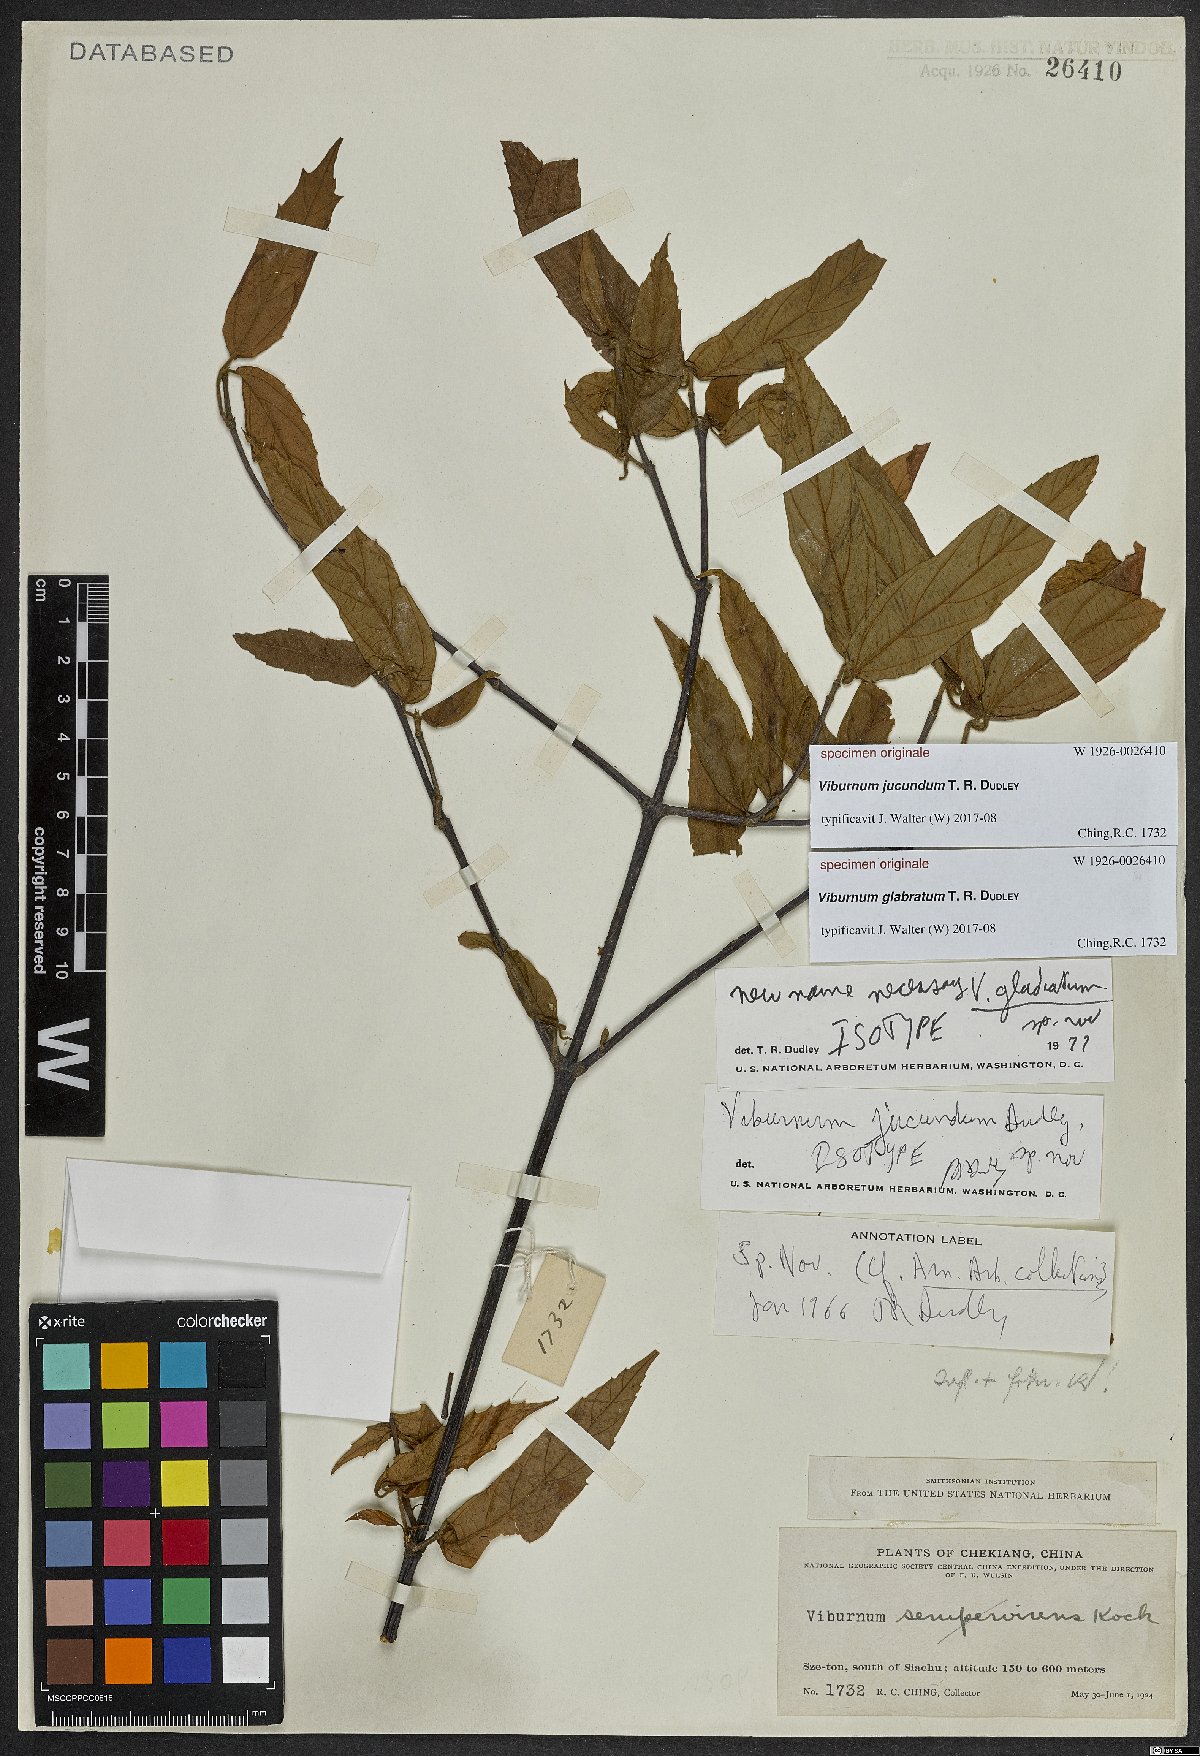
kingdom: Plantae
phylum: Tracheophyta
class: Magnoliopsida
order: Dipsacales
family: Viburnaceae
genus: Viburnum
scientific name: Viburnum
